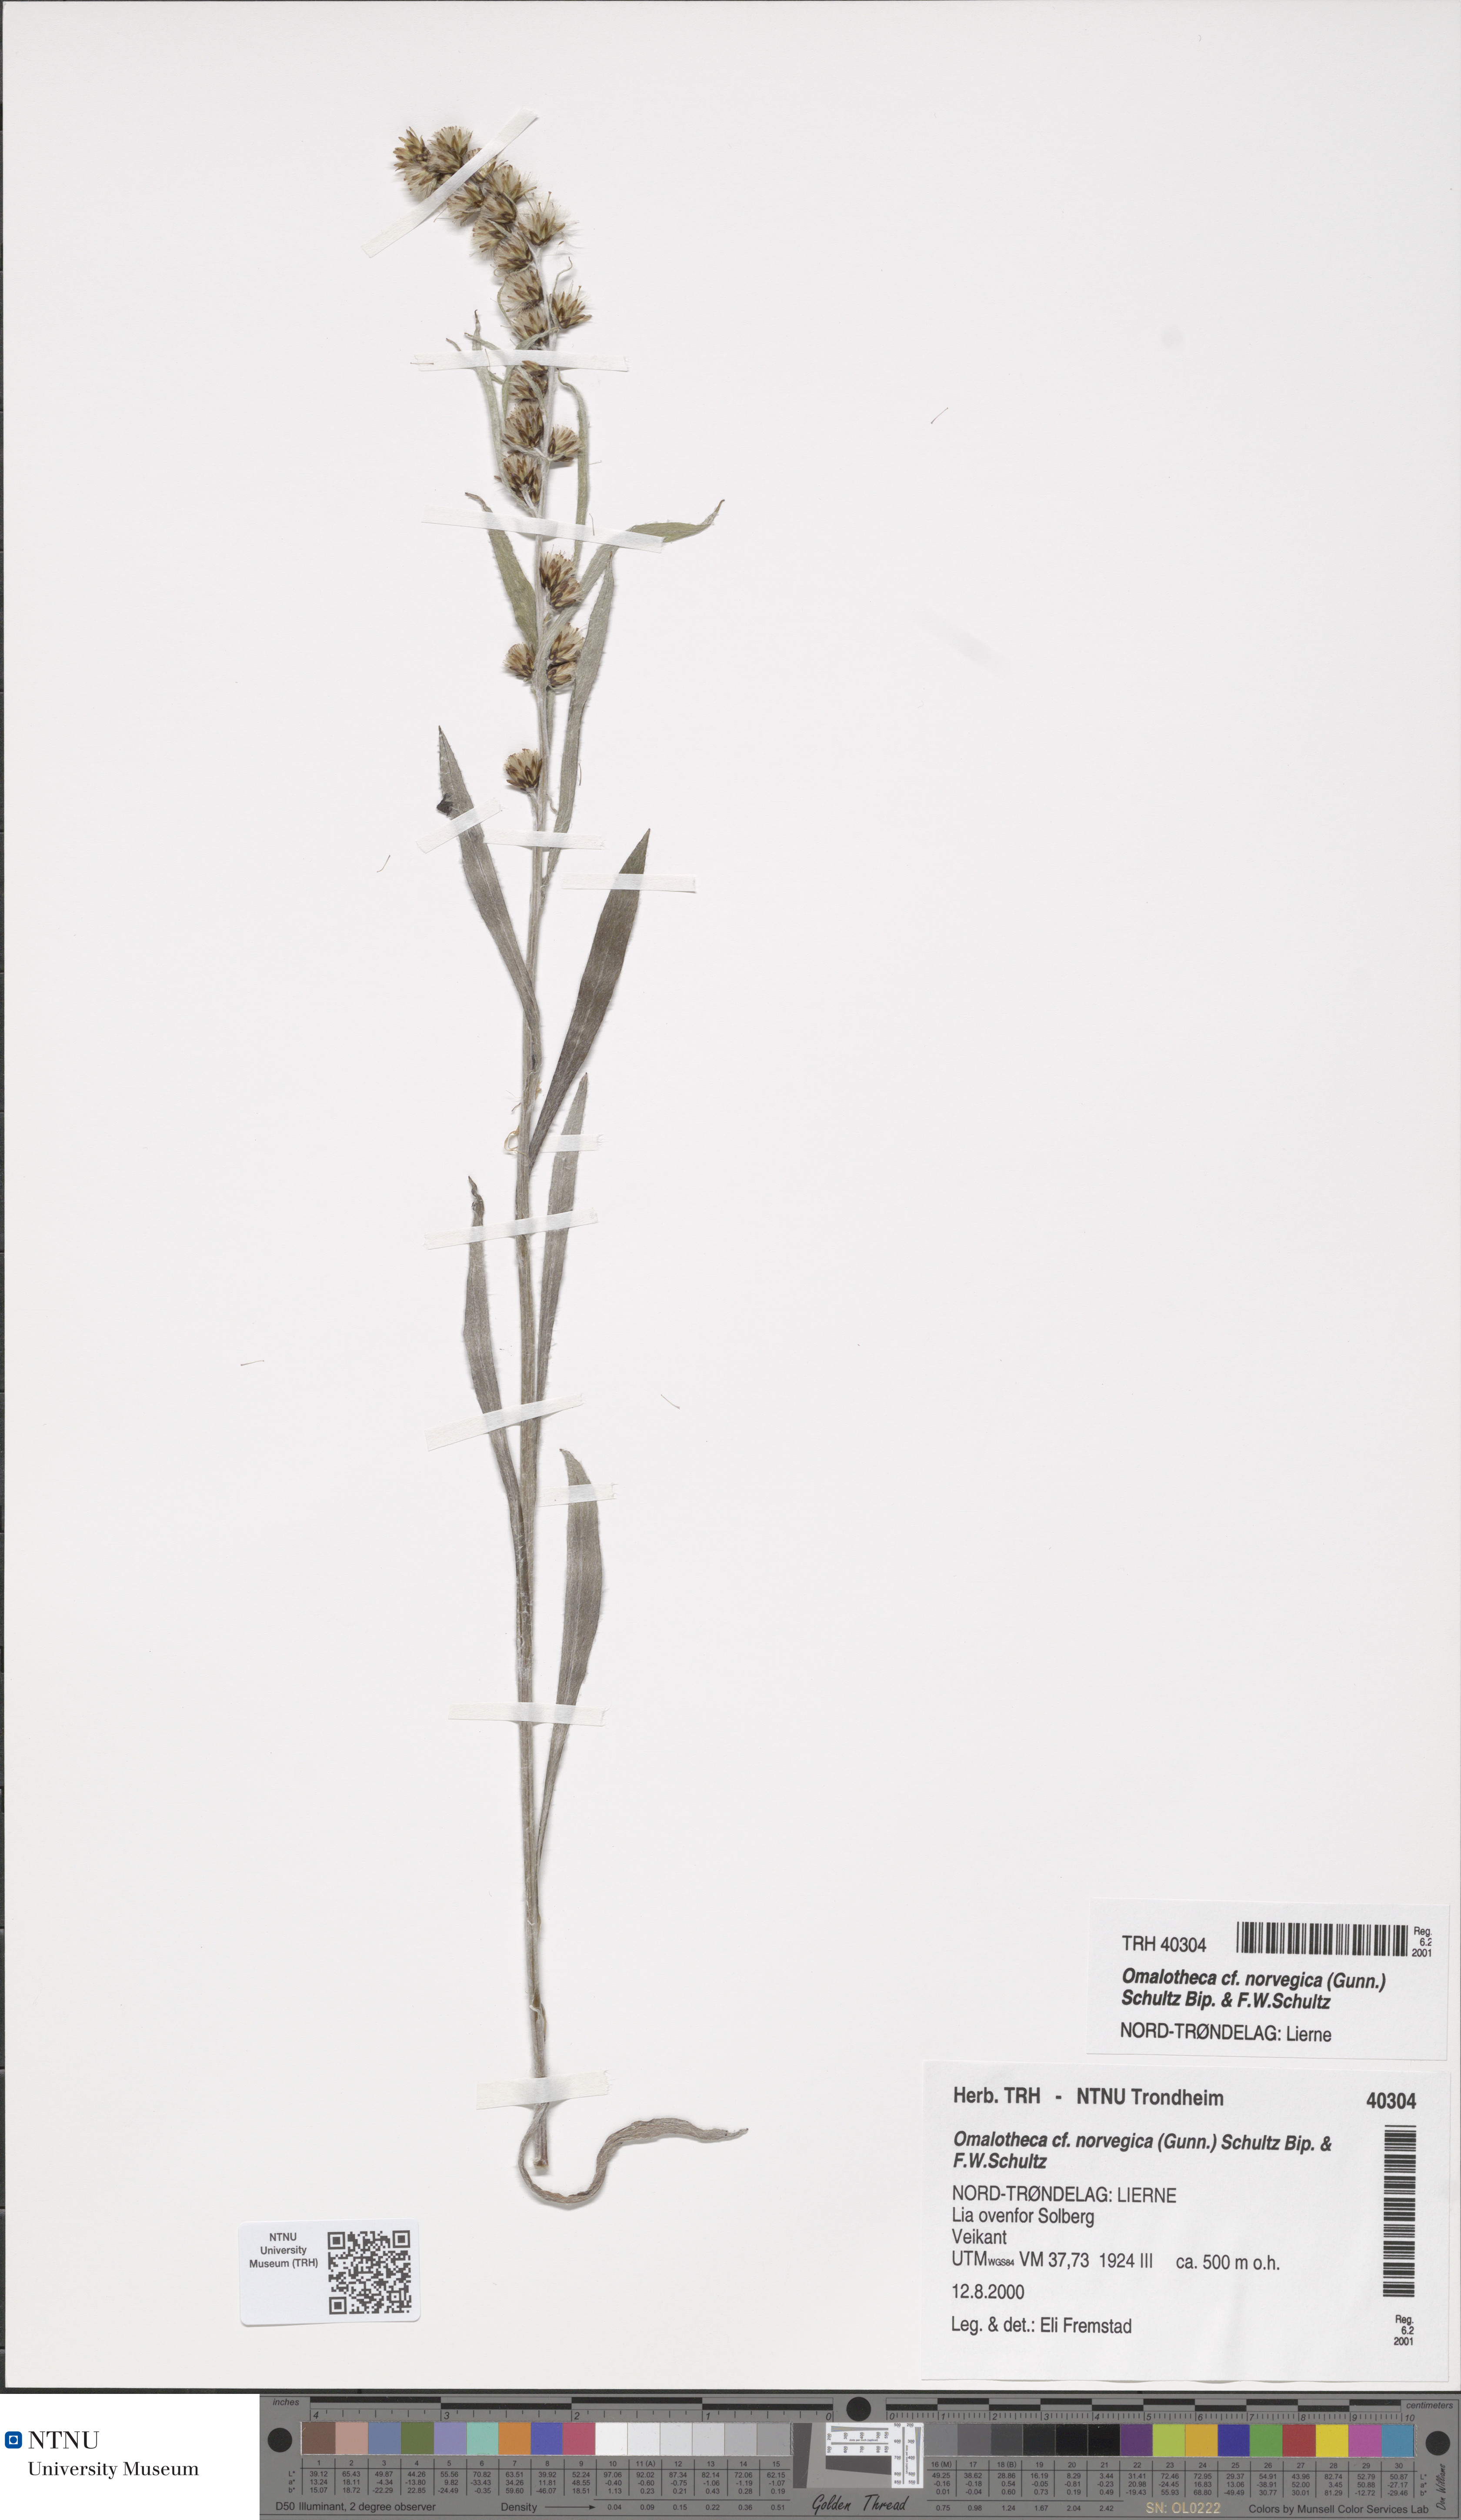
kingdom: Plantae
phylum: Tracheophyta
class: Magnoliopsida
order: Asterales
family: Asteraceae
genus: Omalotheca
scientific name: Omalotheca norvegica
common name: Norwegian arctic-cudweed
